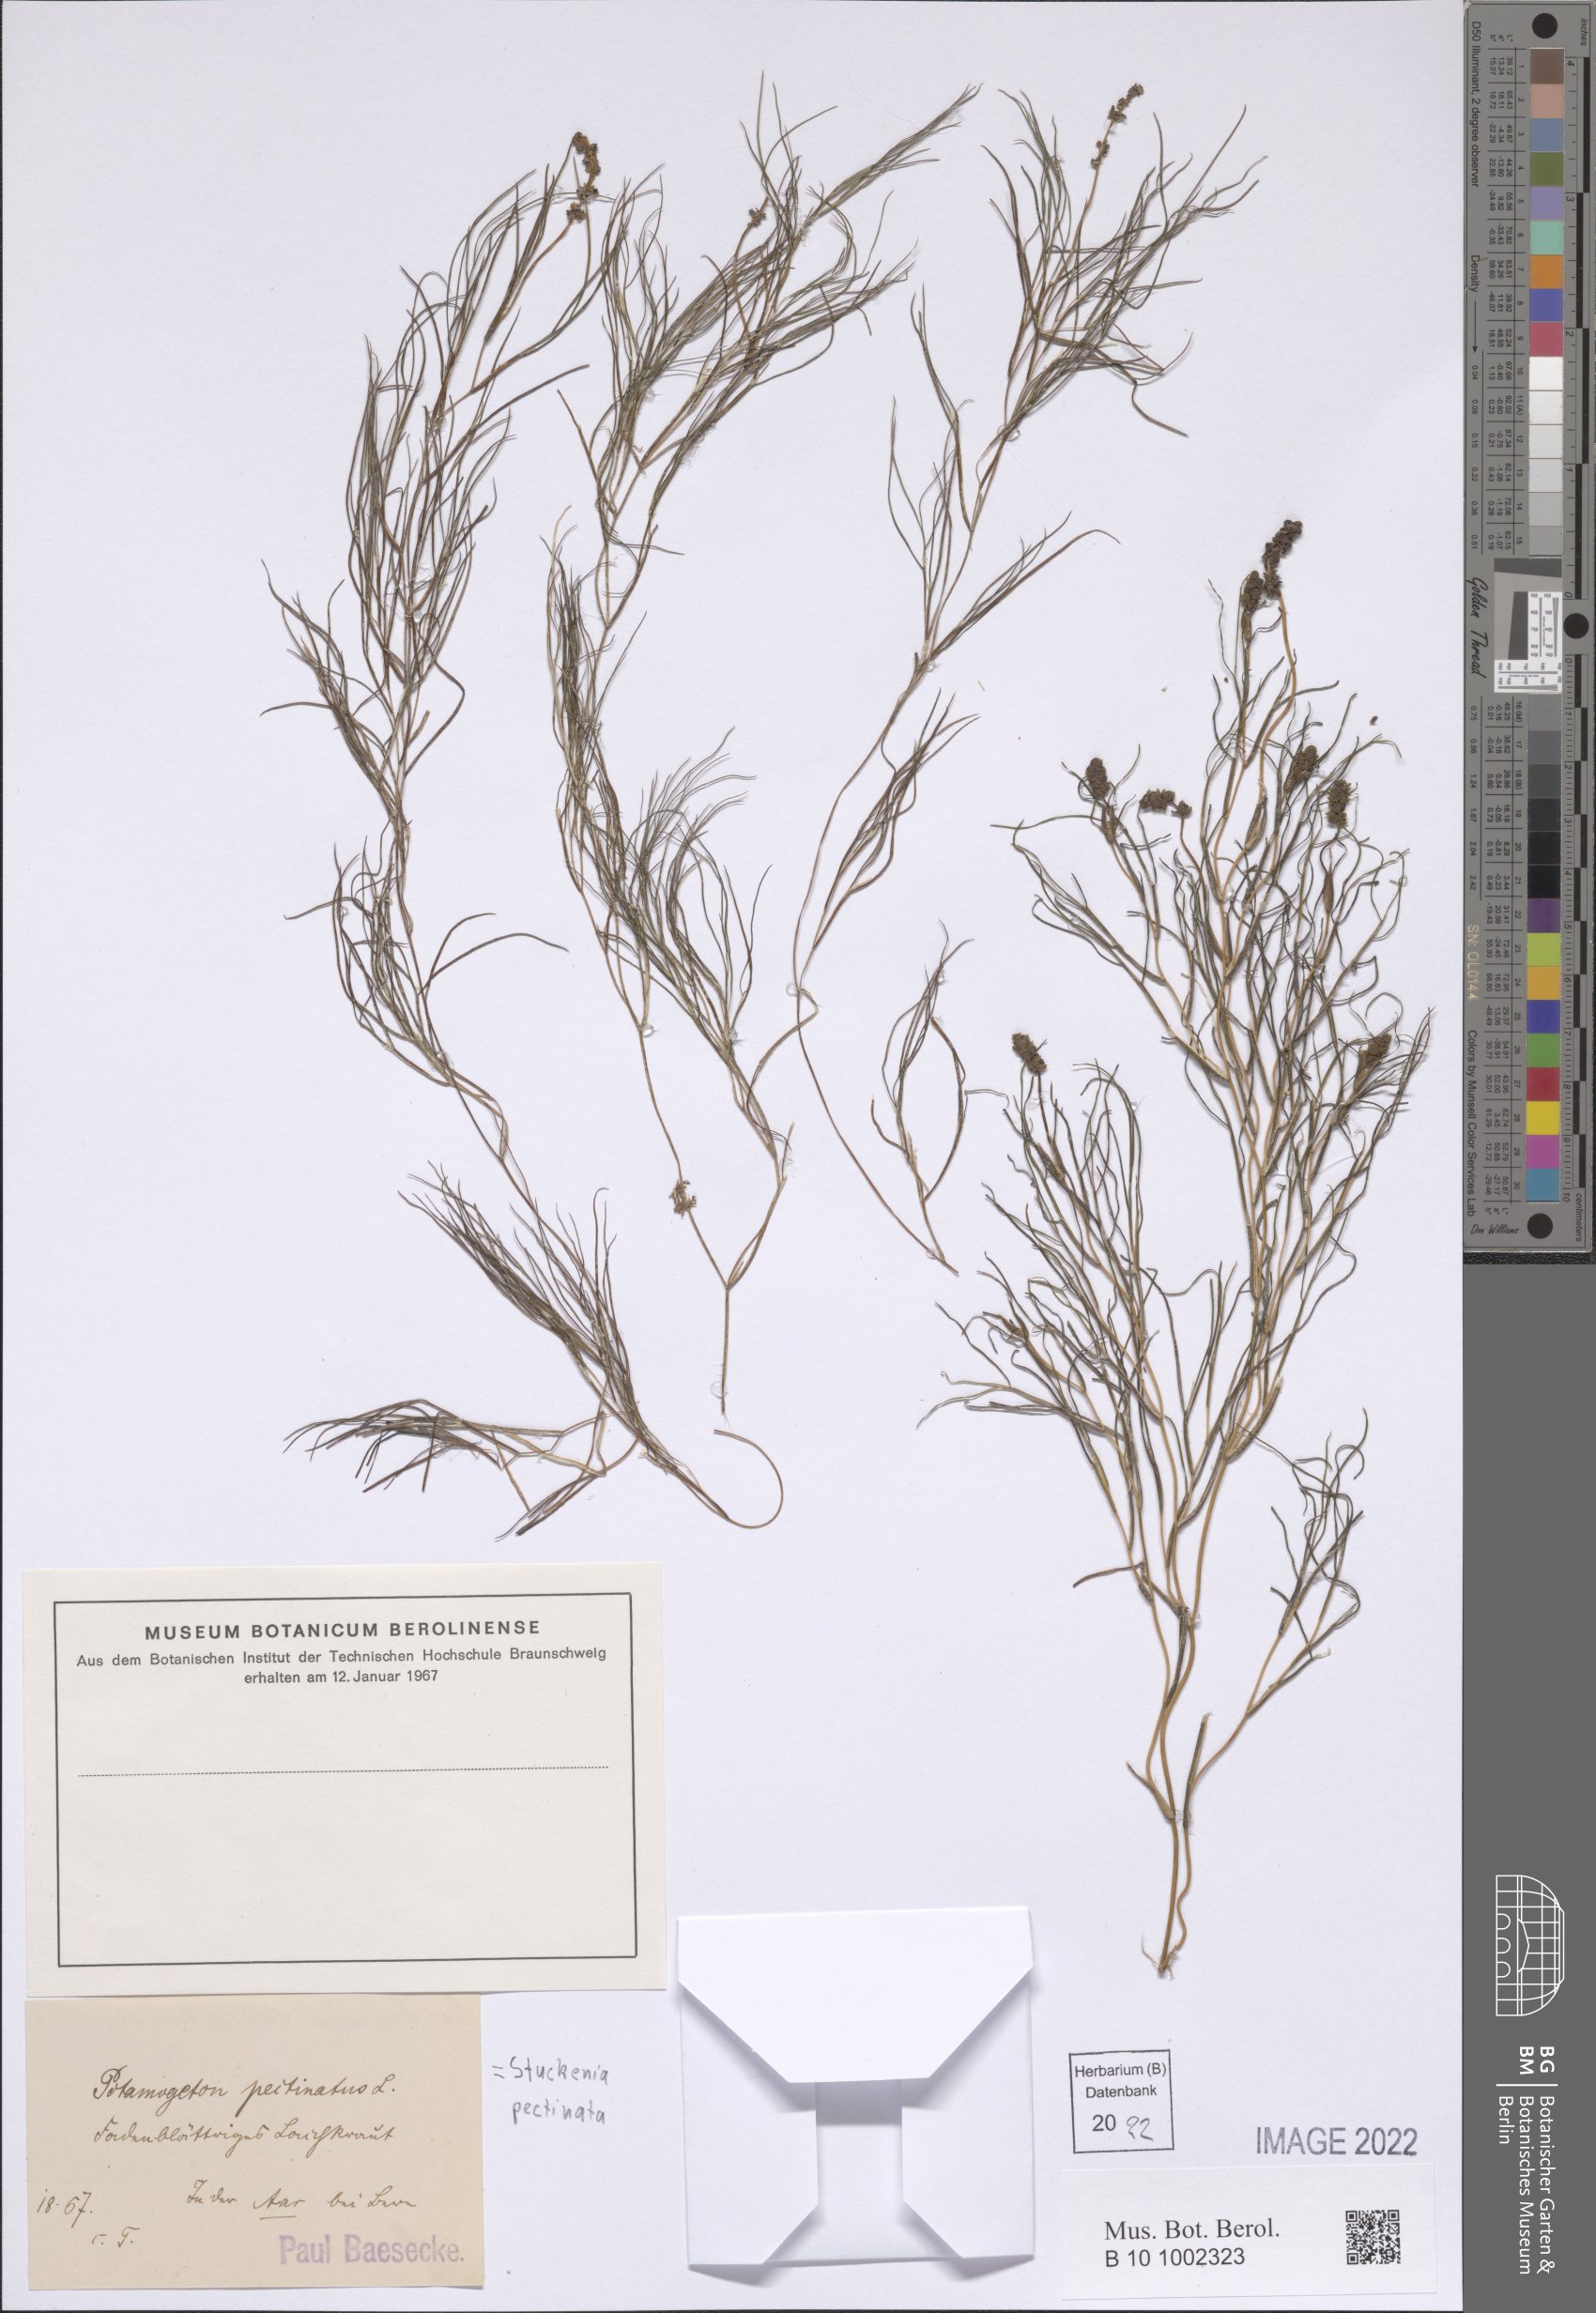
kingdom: Plantae
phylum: Tracheophyta
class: Liliopsida
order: Alismatales
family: Potamogetonaceae
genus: Stuckenia
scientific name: Stuckenia pectinata
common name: Sago pondweed
